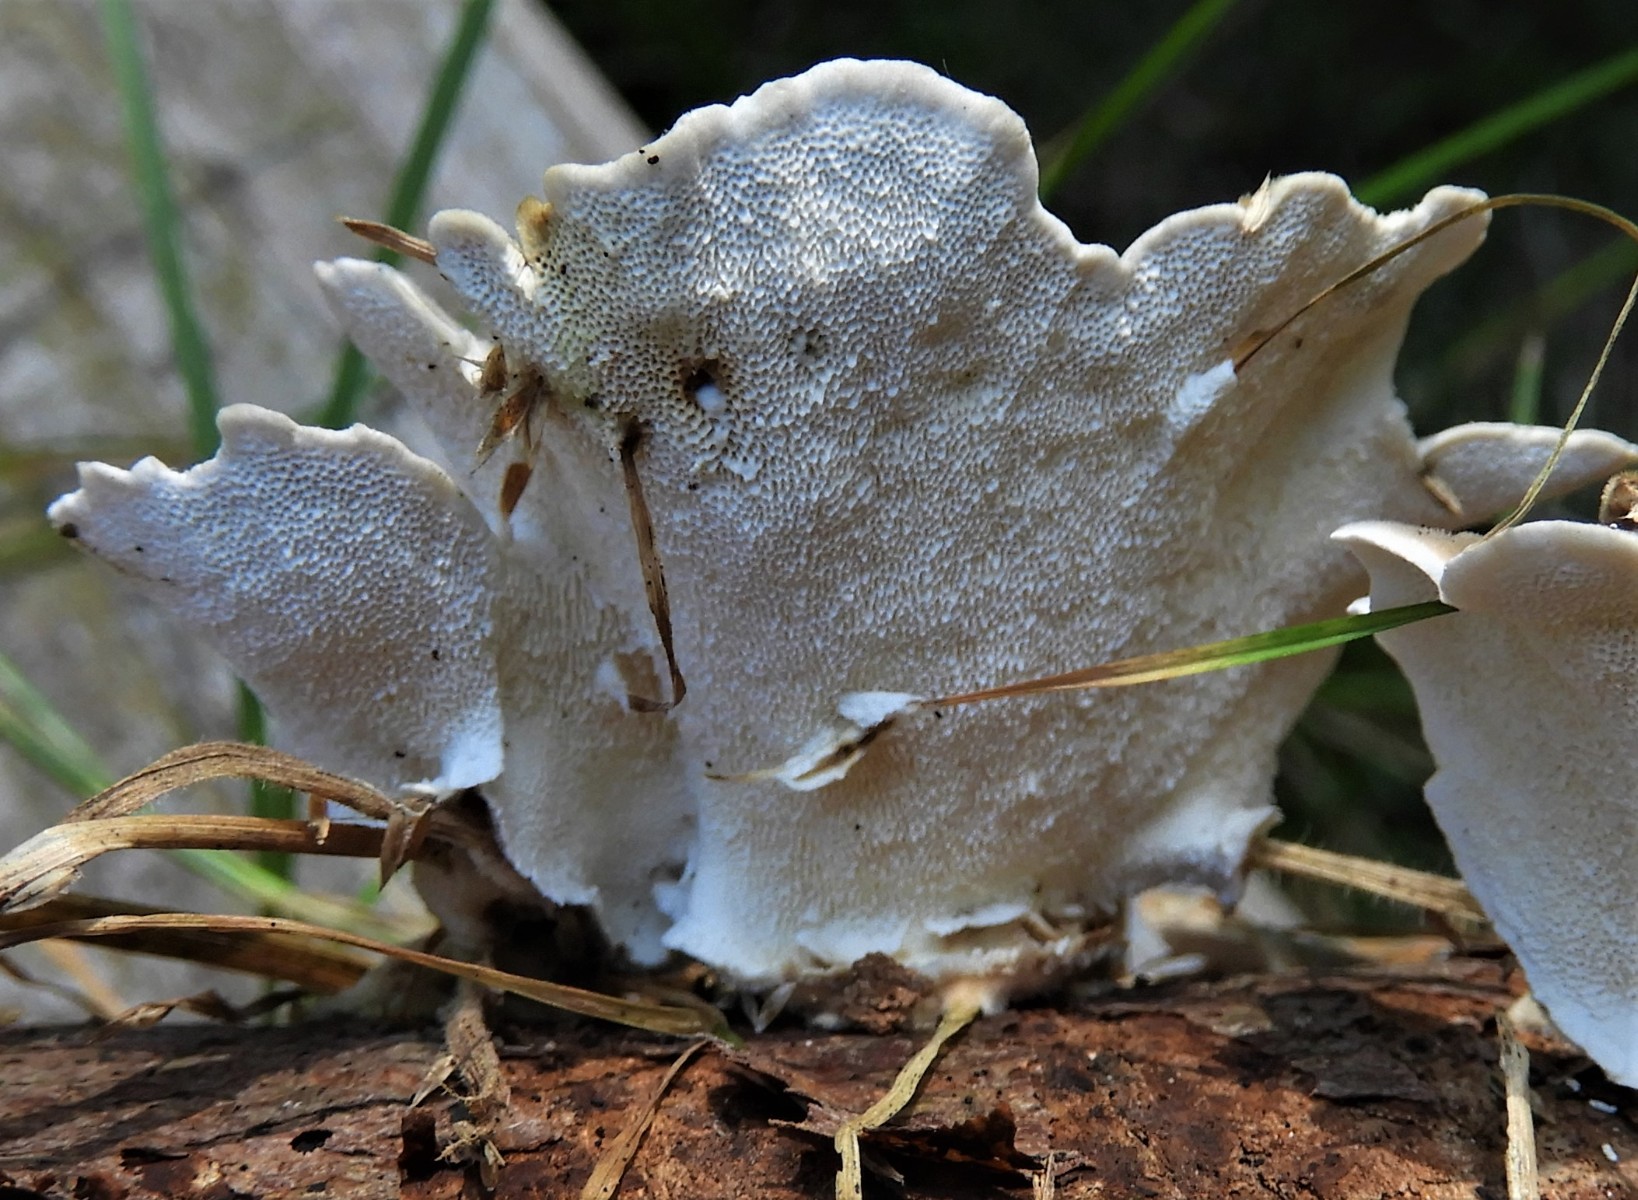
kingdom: Fungi
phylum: Basidiomycota
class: Agaricomycetes
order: Polyporales
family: Polyporaceae
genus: Trametes
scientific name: Trametes versicolor
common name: broget læderporesvamp
